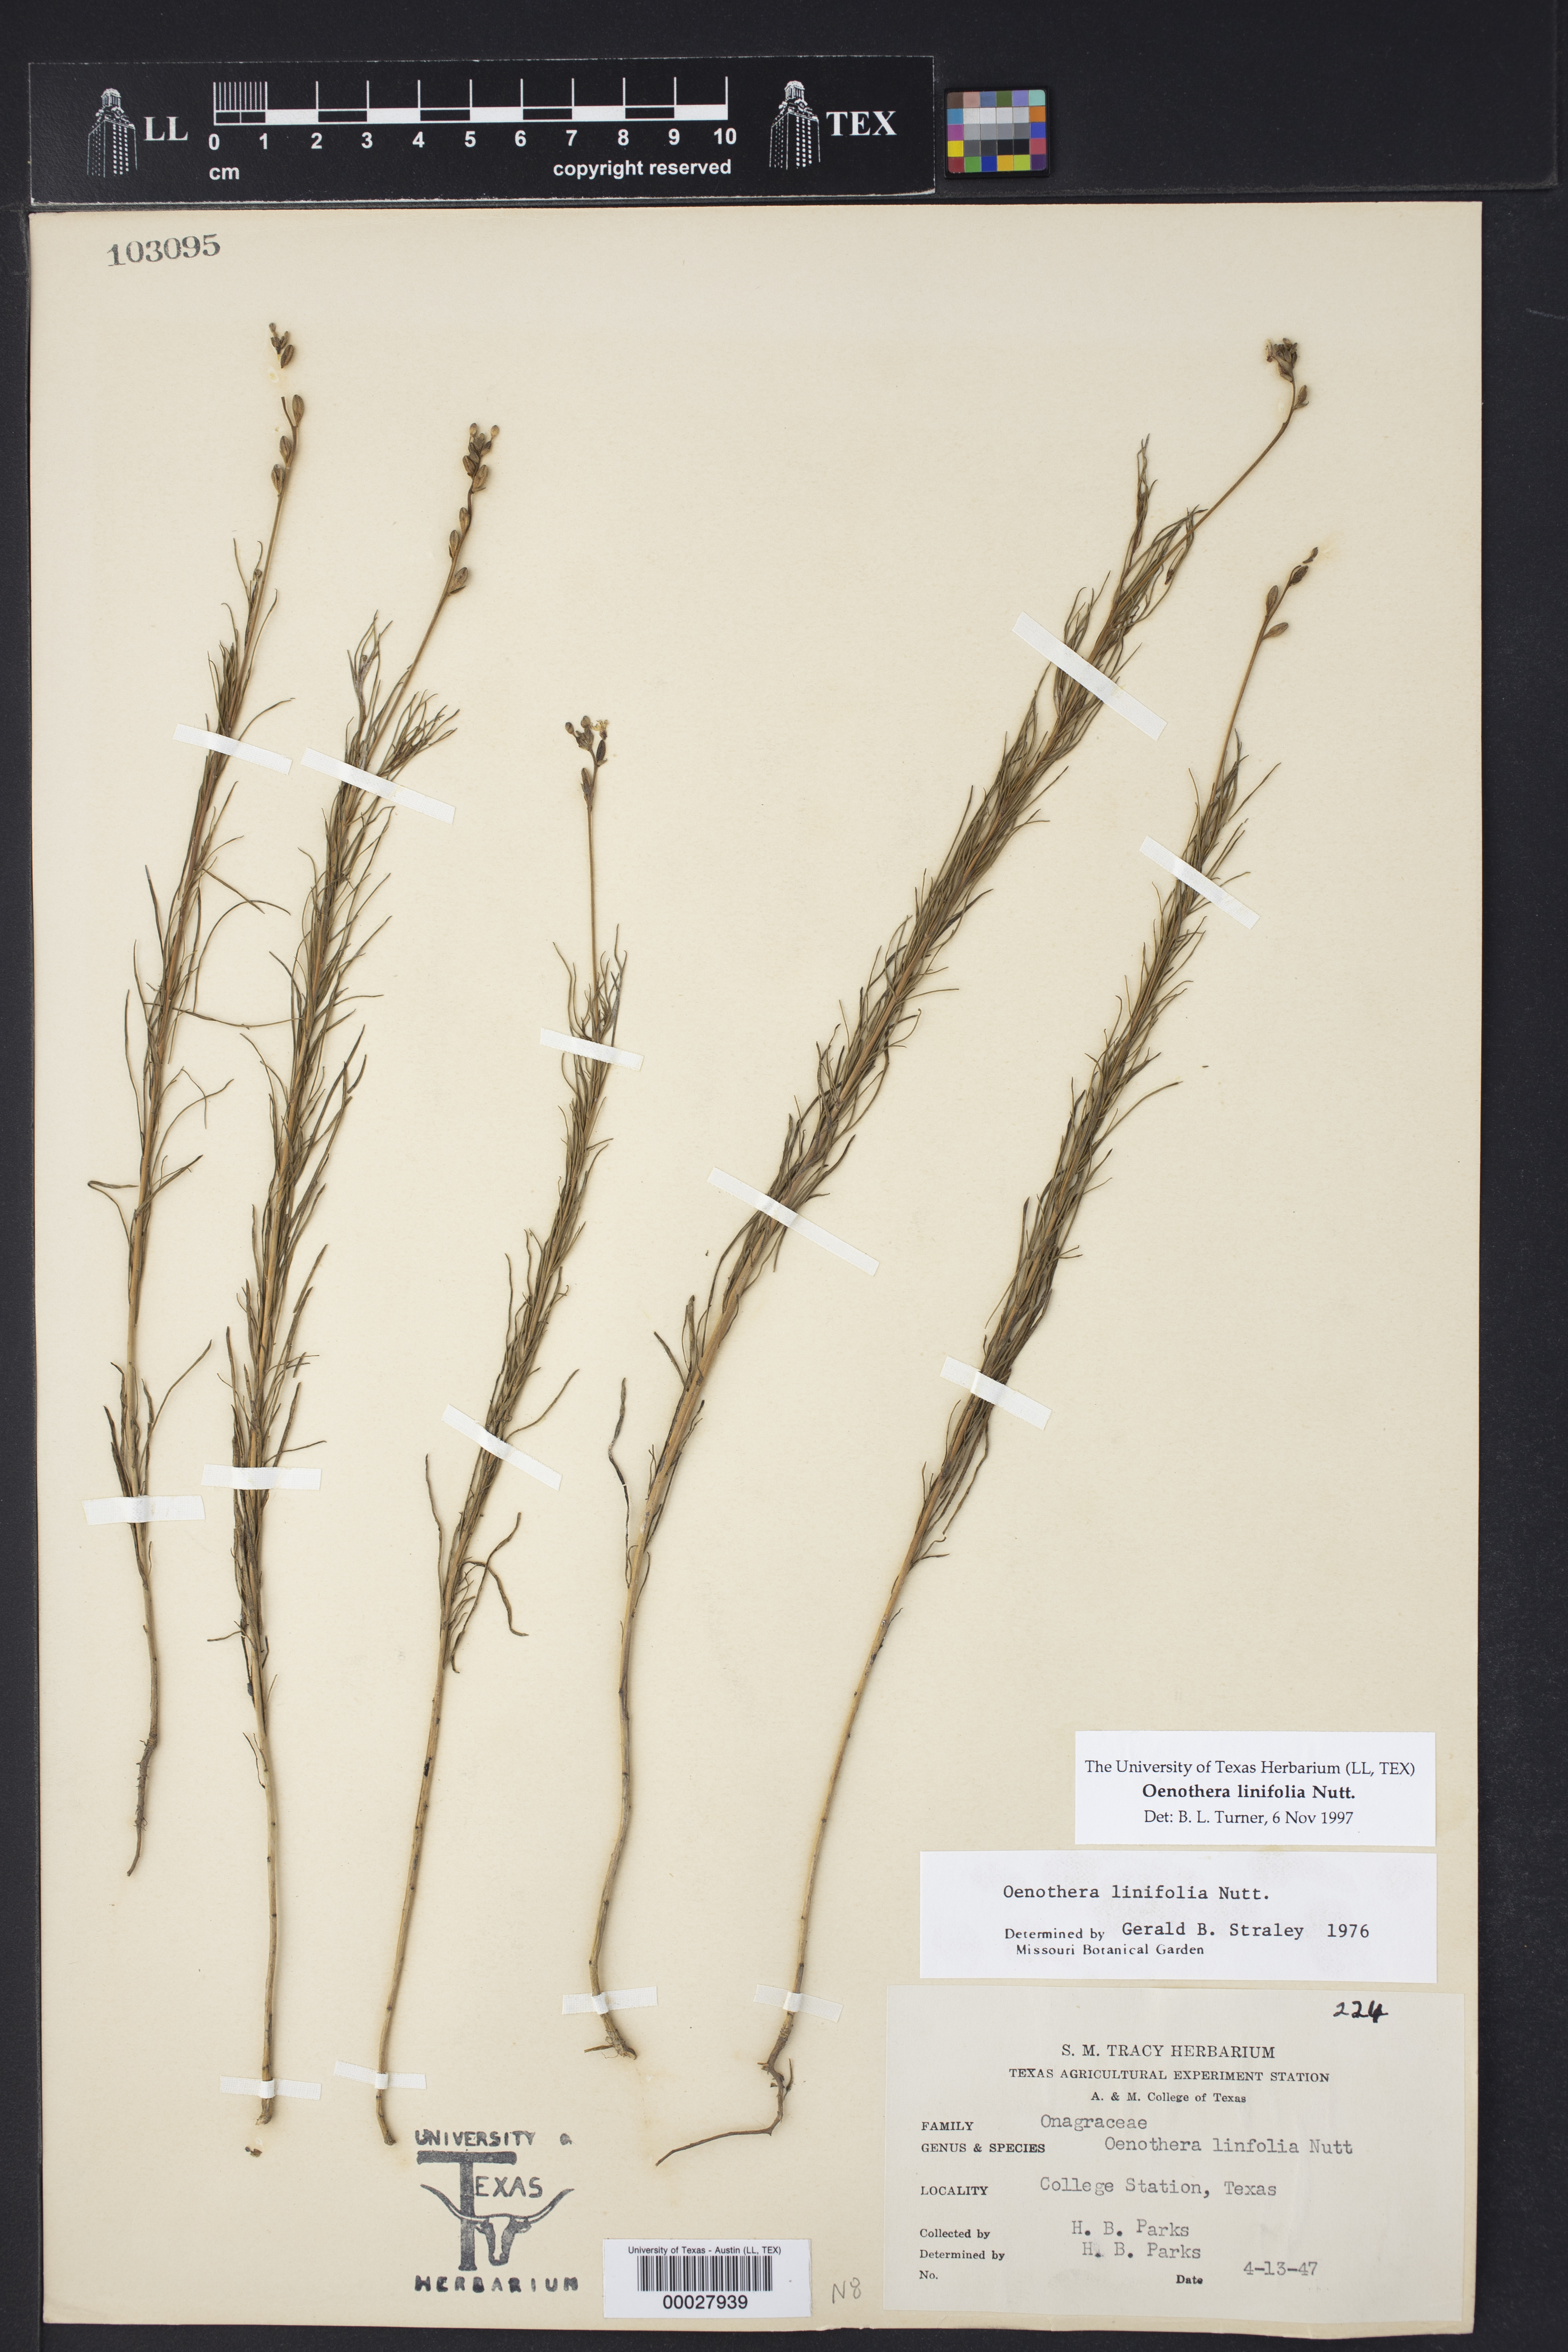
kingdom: Plantae
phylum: Tracheophyta
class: Magnoliopsida
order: Myrtales
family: Onagraceae
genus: Oenothera
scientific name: Oenothera linifolia
